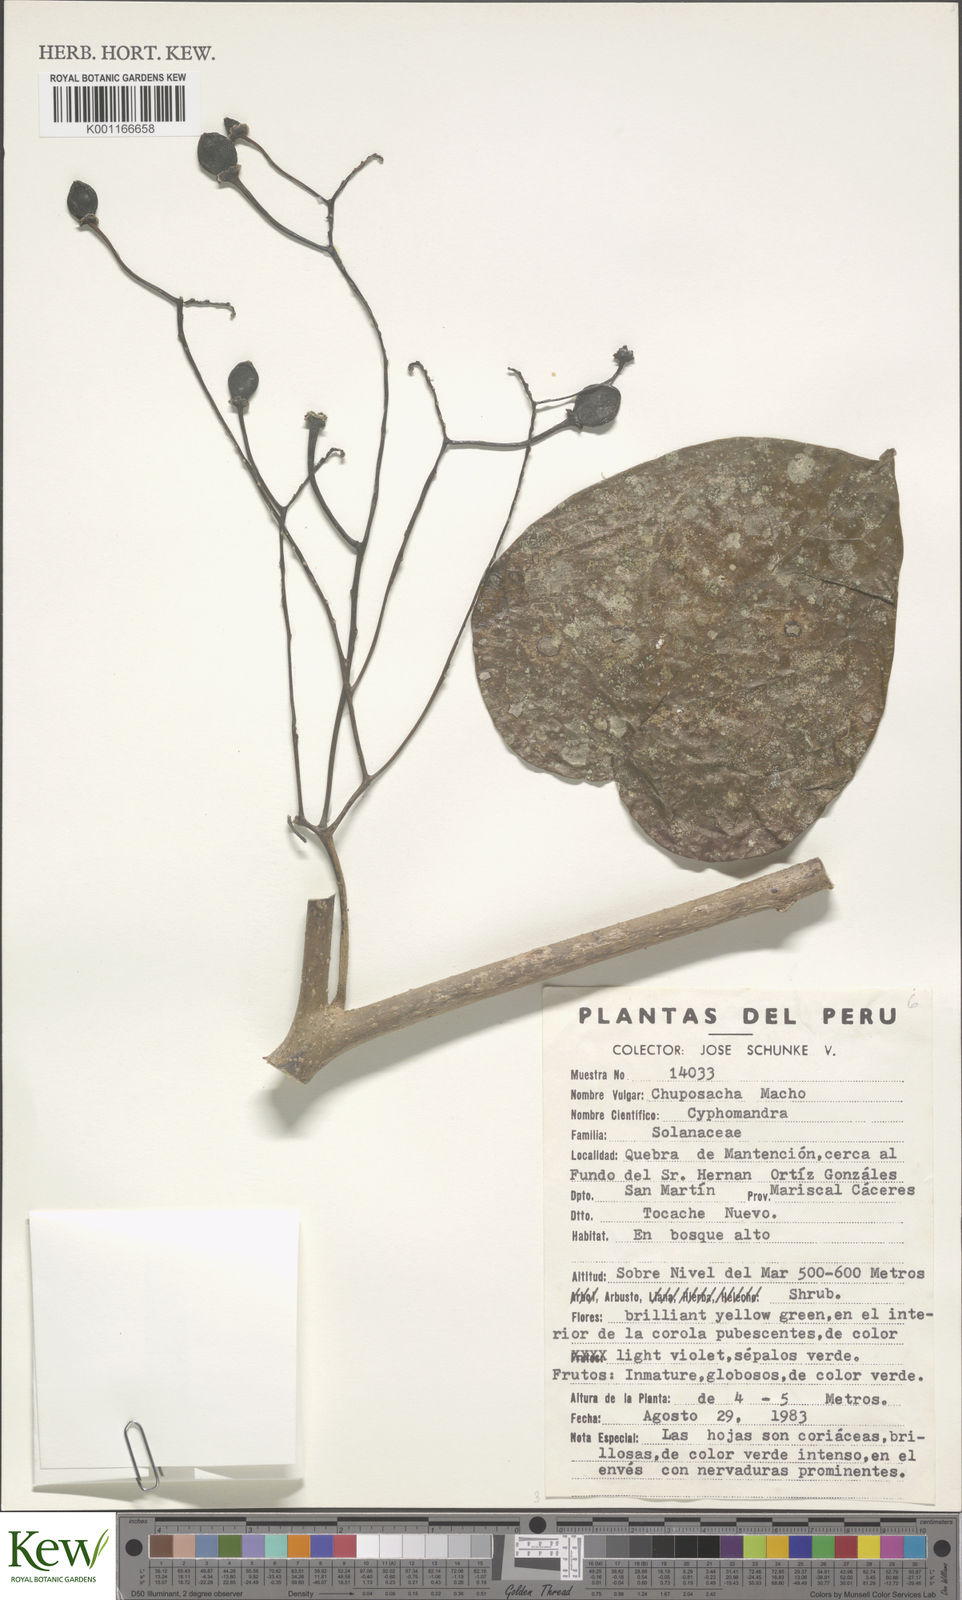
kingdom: Plantae
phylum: Tracheophyta
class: Magnoliopsida
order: Solanales
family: Solanaceae
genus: Solanum
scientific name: Solanum
